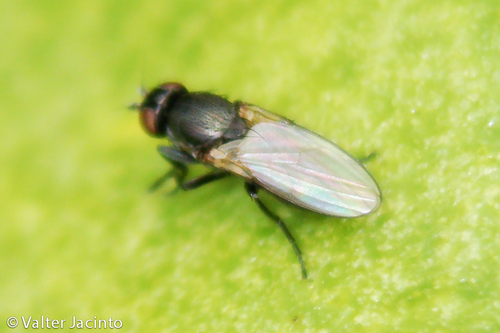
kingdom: Animalia
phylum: Arthropoda
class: Insecta
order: Diptera
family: Milichiidae
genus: Desmometopa
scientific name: Desmometopa varipalpis
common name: Milichiid fly
